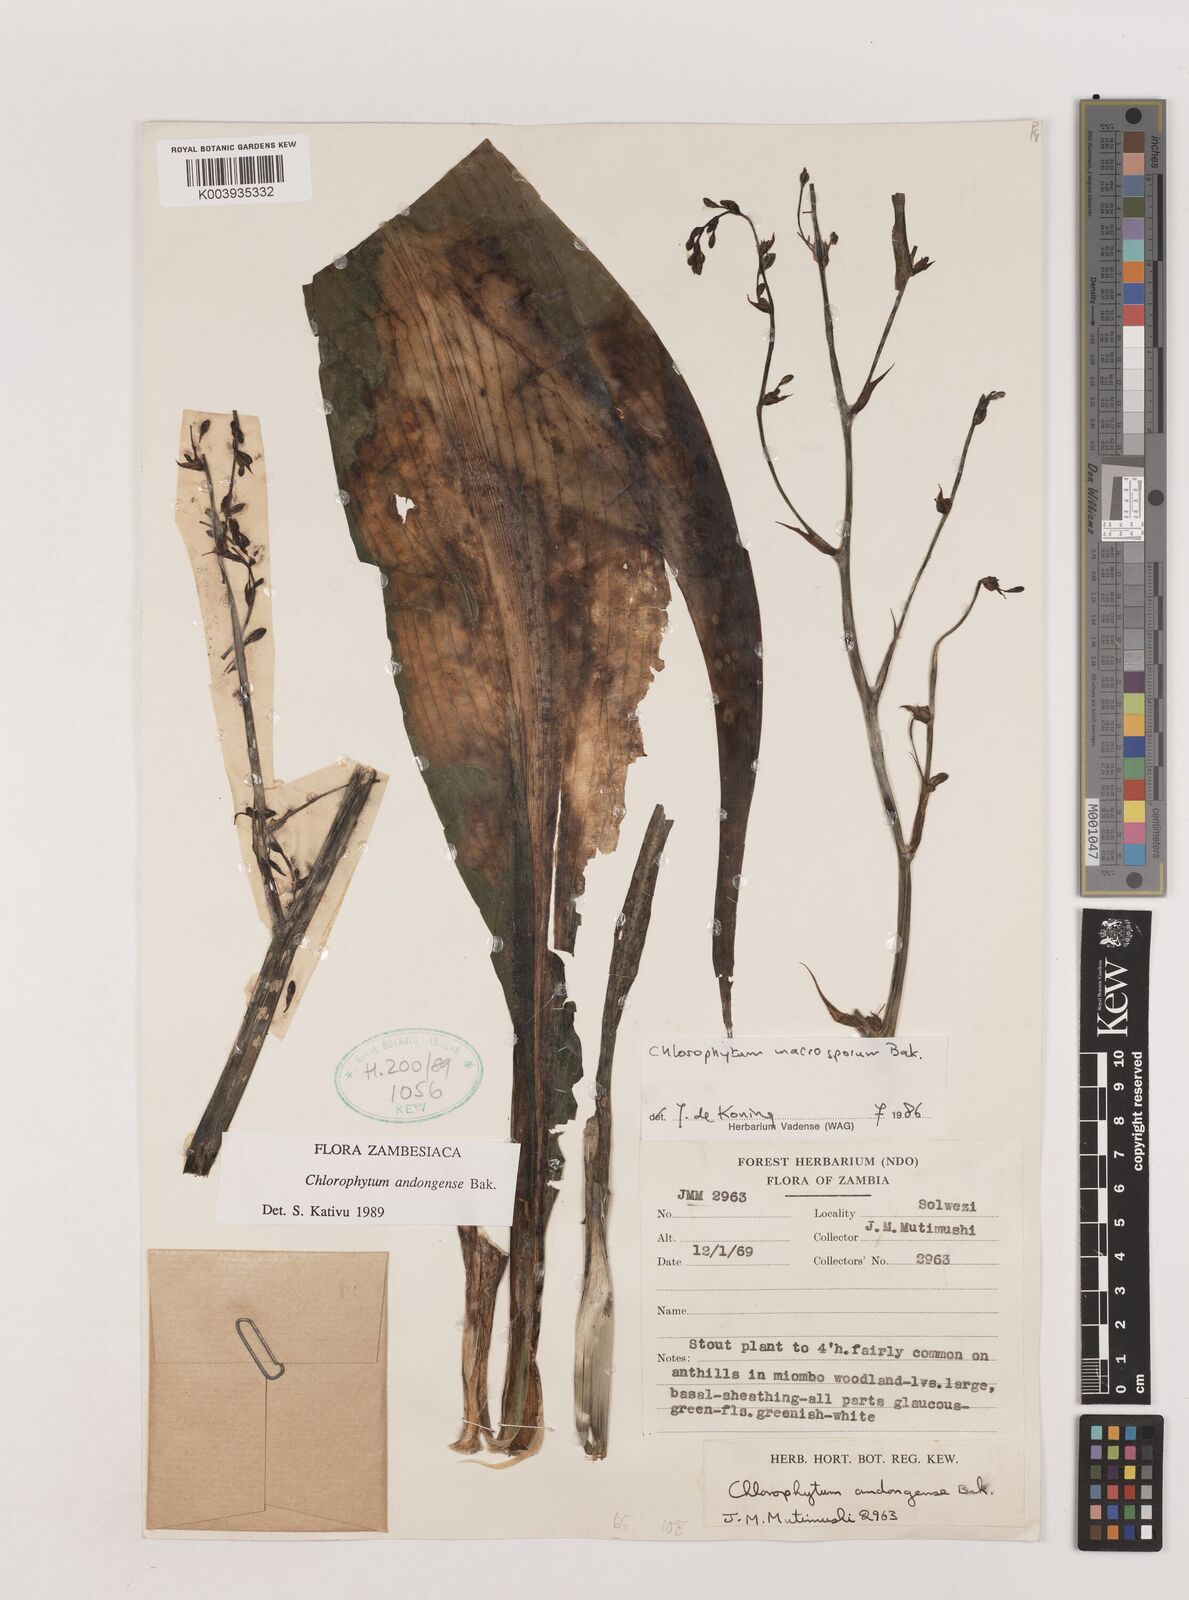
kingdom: Plantae
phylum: Tracheophyta
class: Liliopsida
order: Asparagales
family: Asparagaceae
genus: Chlorophytum
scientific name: Chlorophytum andongense
